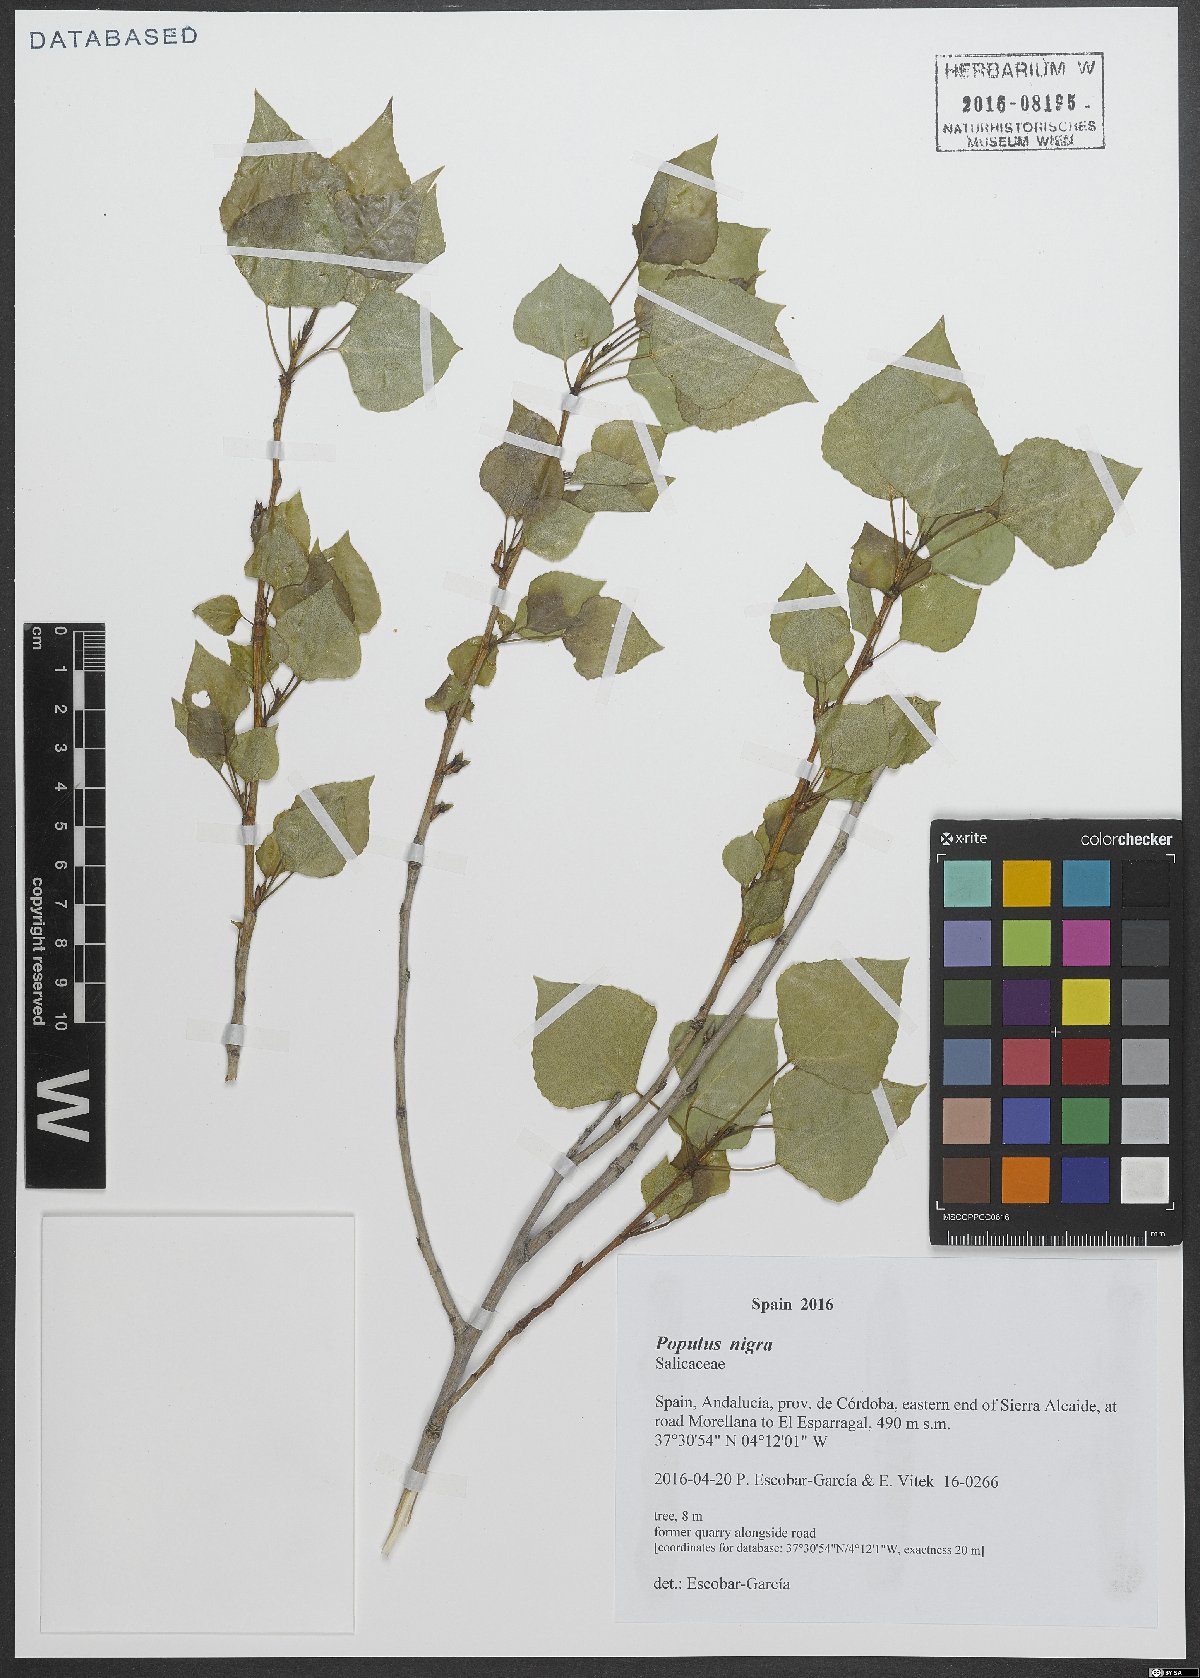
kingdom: Plantae
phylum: Tracheophyta
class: Magnoliopsida
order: Malpighiales
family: Salicaceae
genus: Populus
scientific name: Populus nigra
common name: Black poplar
